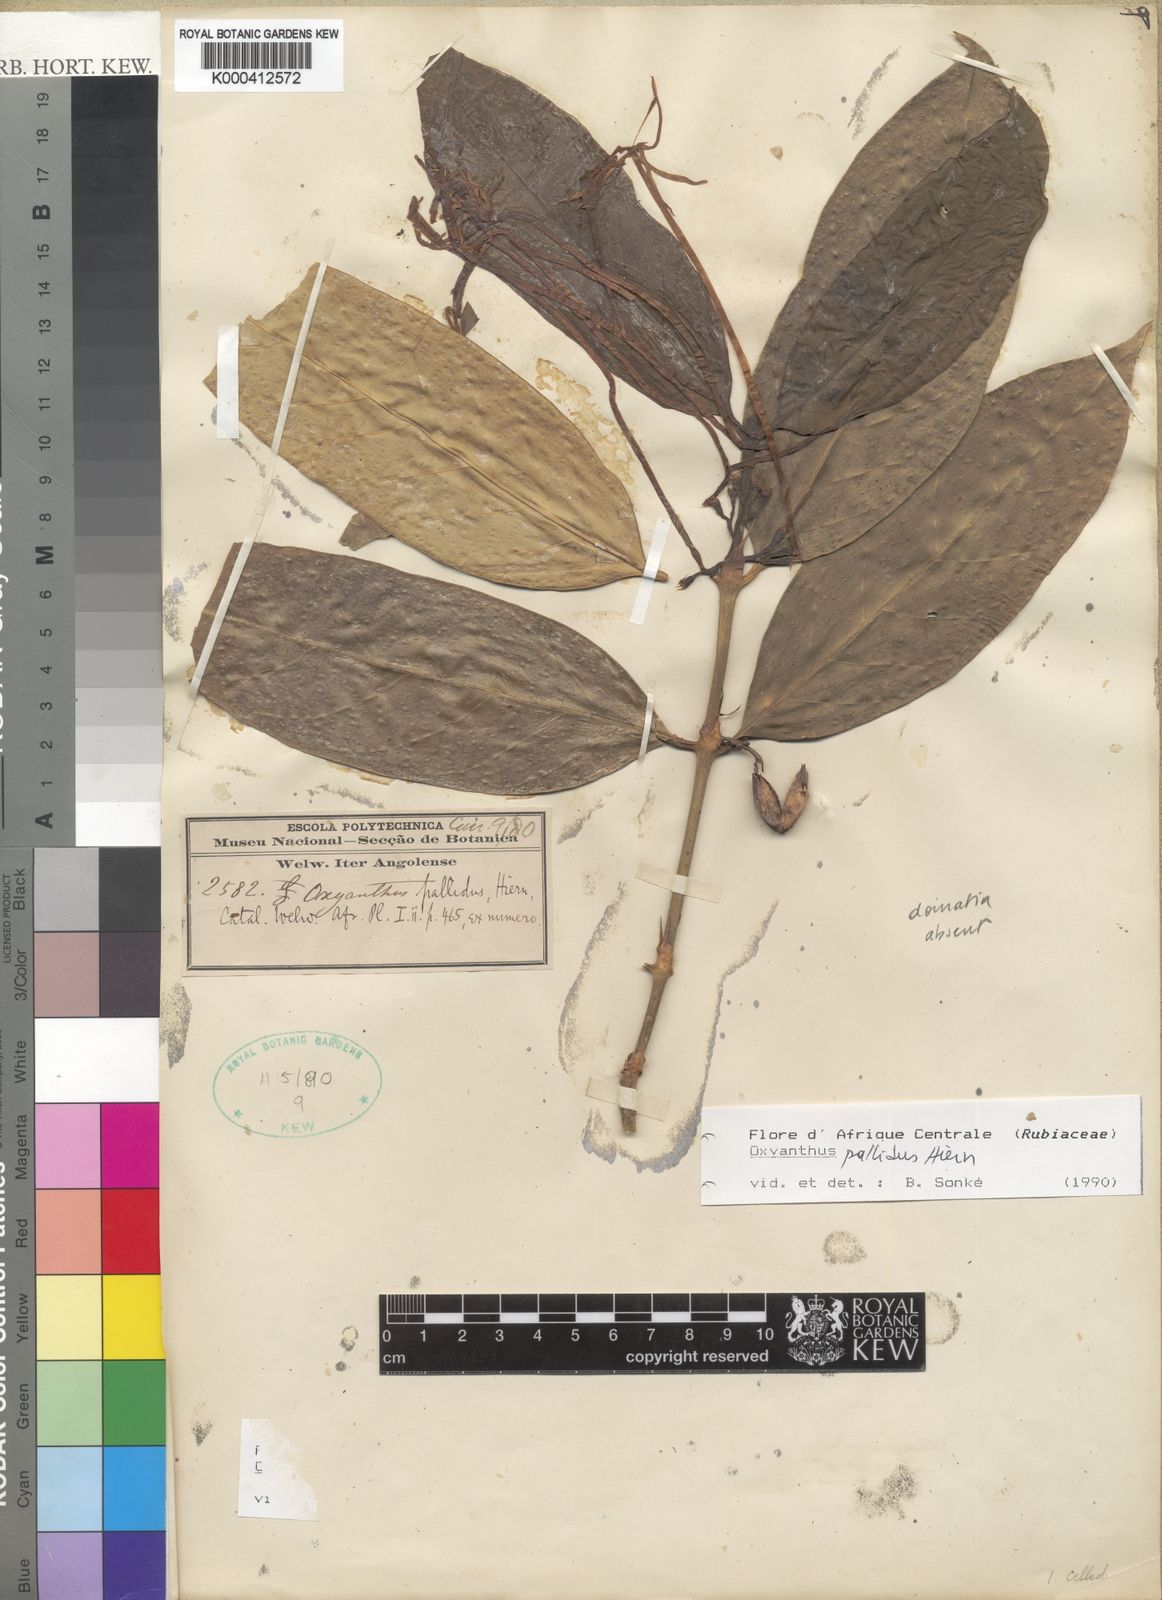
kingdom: Plantae
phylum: Tracheophyta
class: Magnoliopsida
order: Gentianales
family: Rubiaceae
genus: Oxyanthus
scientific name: Oxyanthus pallidus
